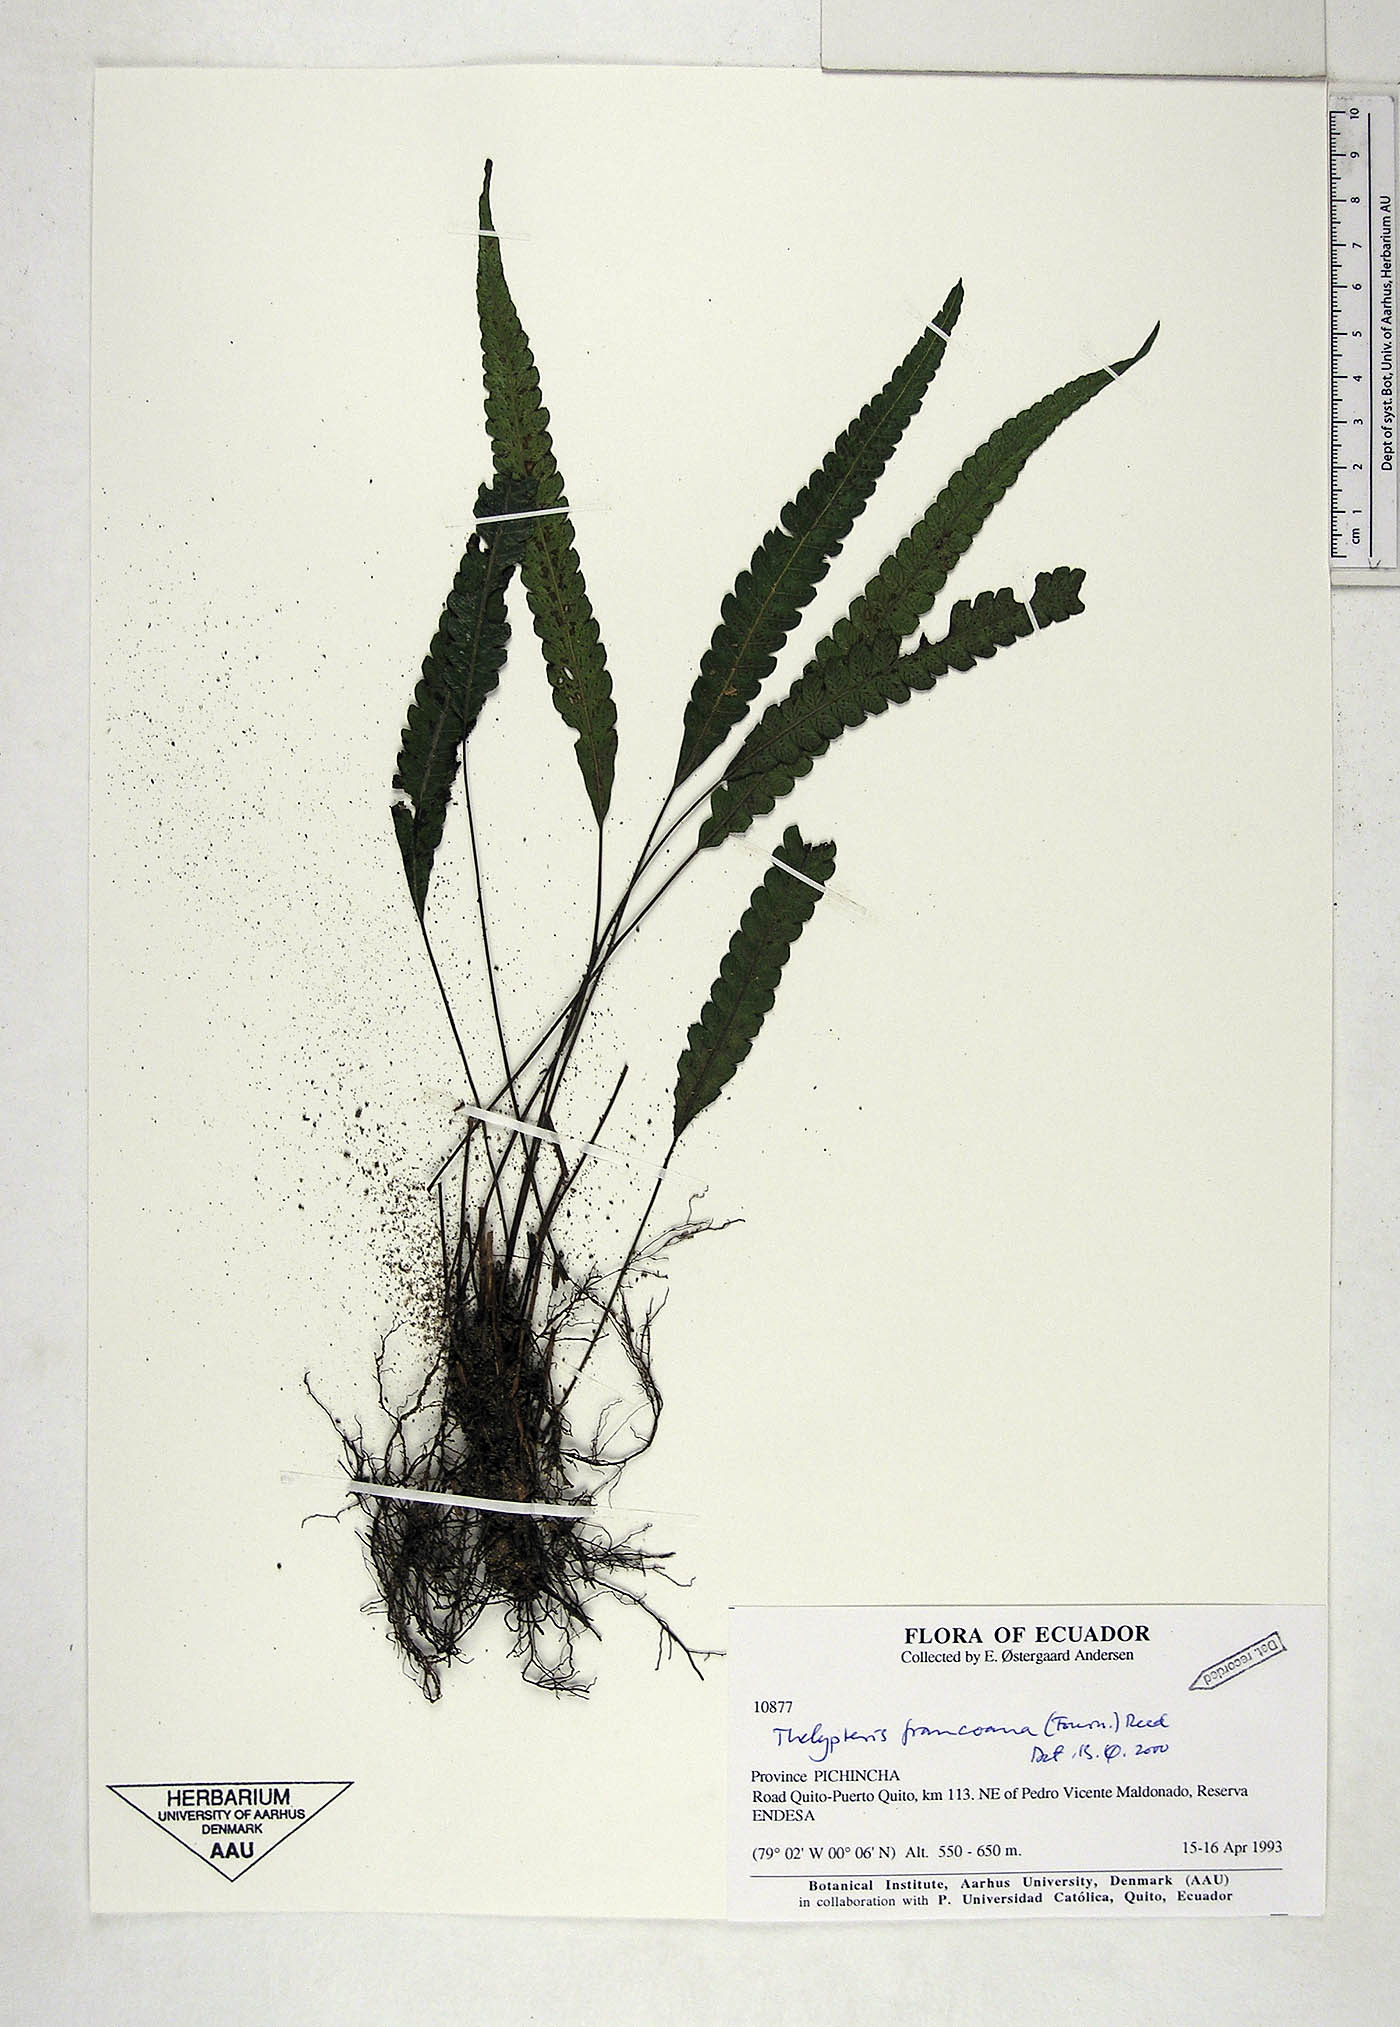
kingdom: Plantae
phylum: Tracheophyta
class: Polypodiopsida
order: Polypodiales
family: Thelypteridaceae
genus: Goniopteris
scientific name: Goniopteris francoana
